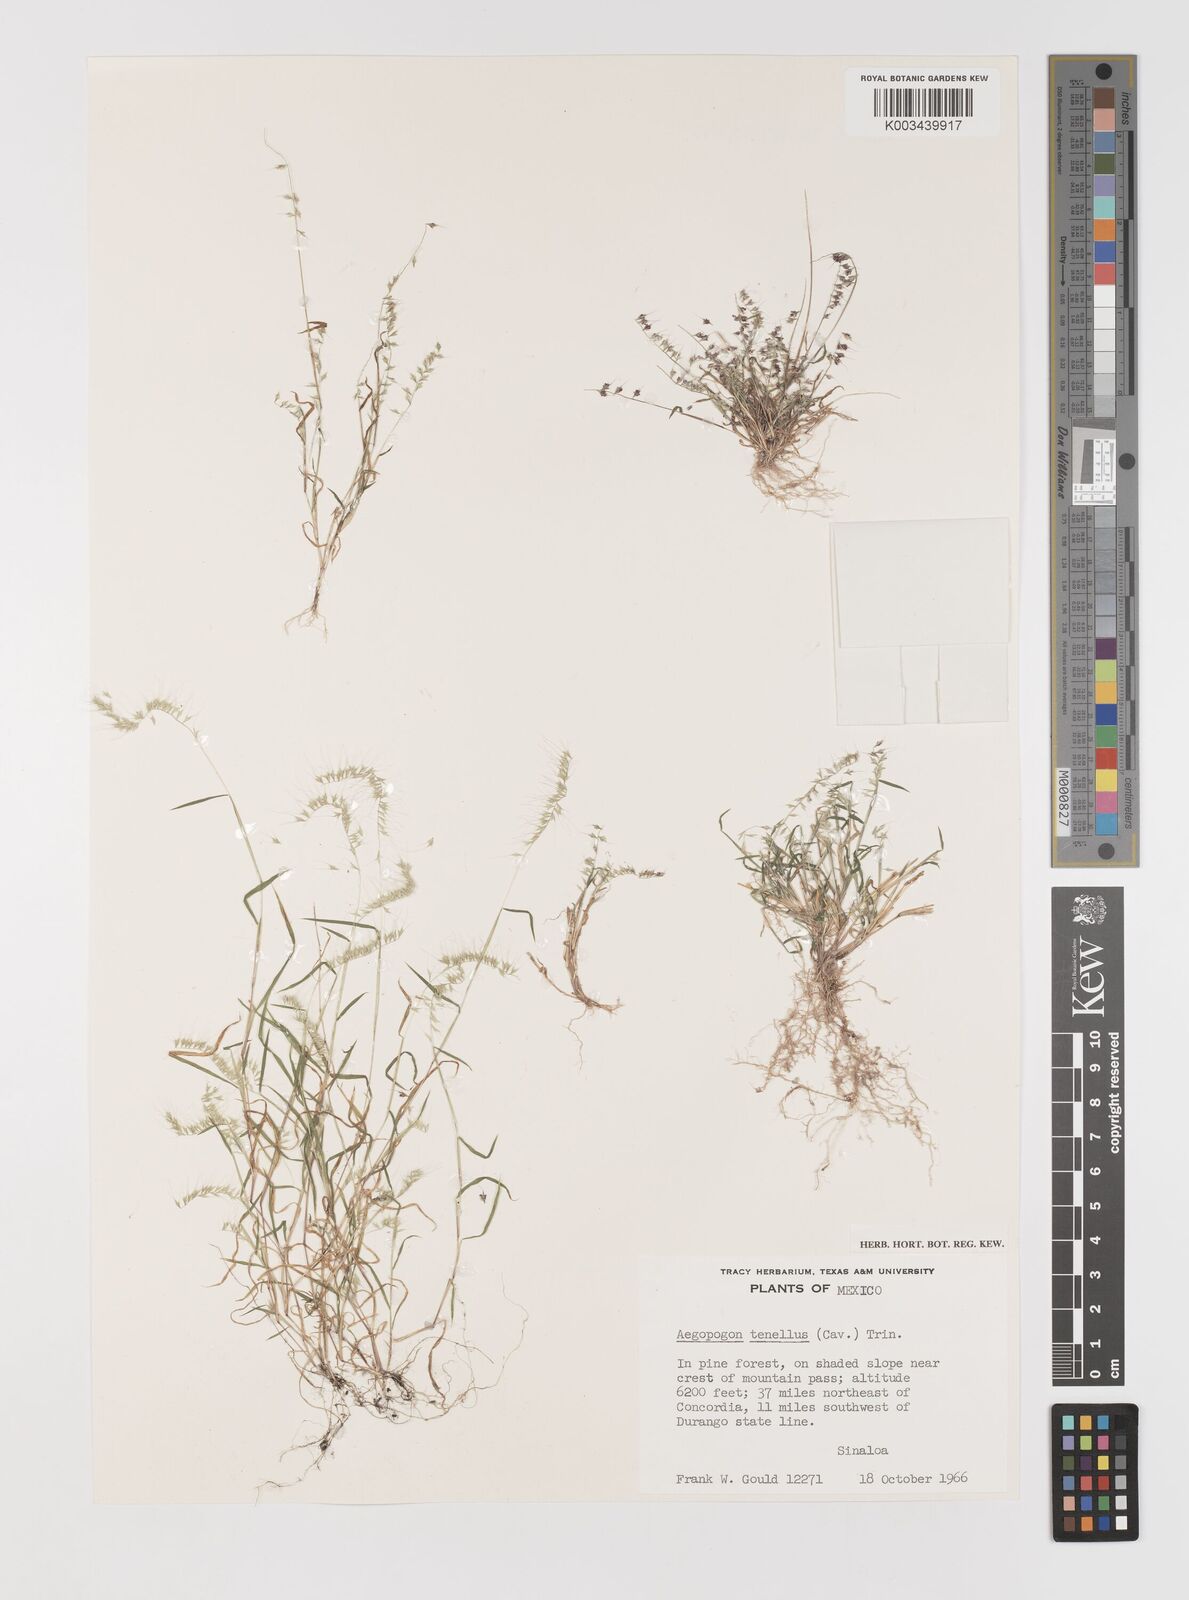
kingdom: Plantae
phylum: Tracheophyta
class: Liliopsida
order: Poales
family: Poaceae
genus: Muhlenbergia
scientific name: Muhlenbergia uniseta
